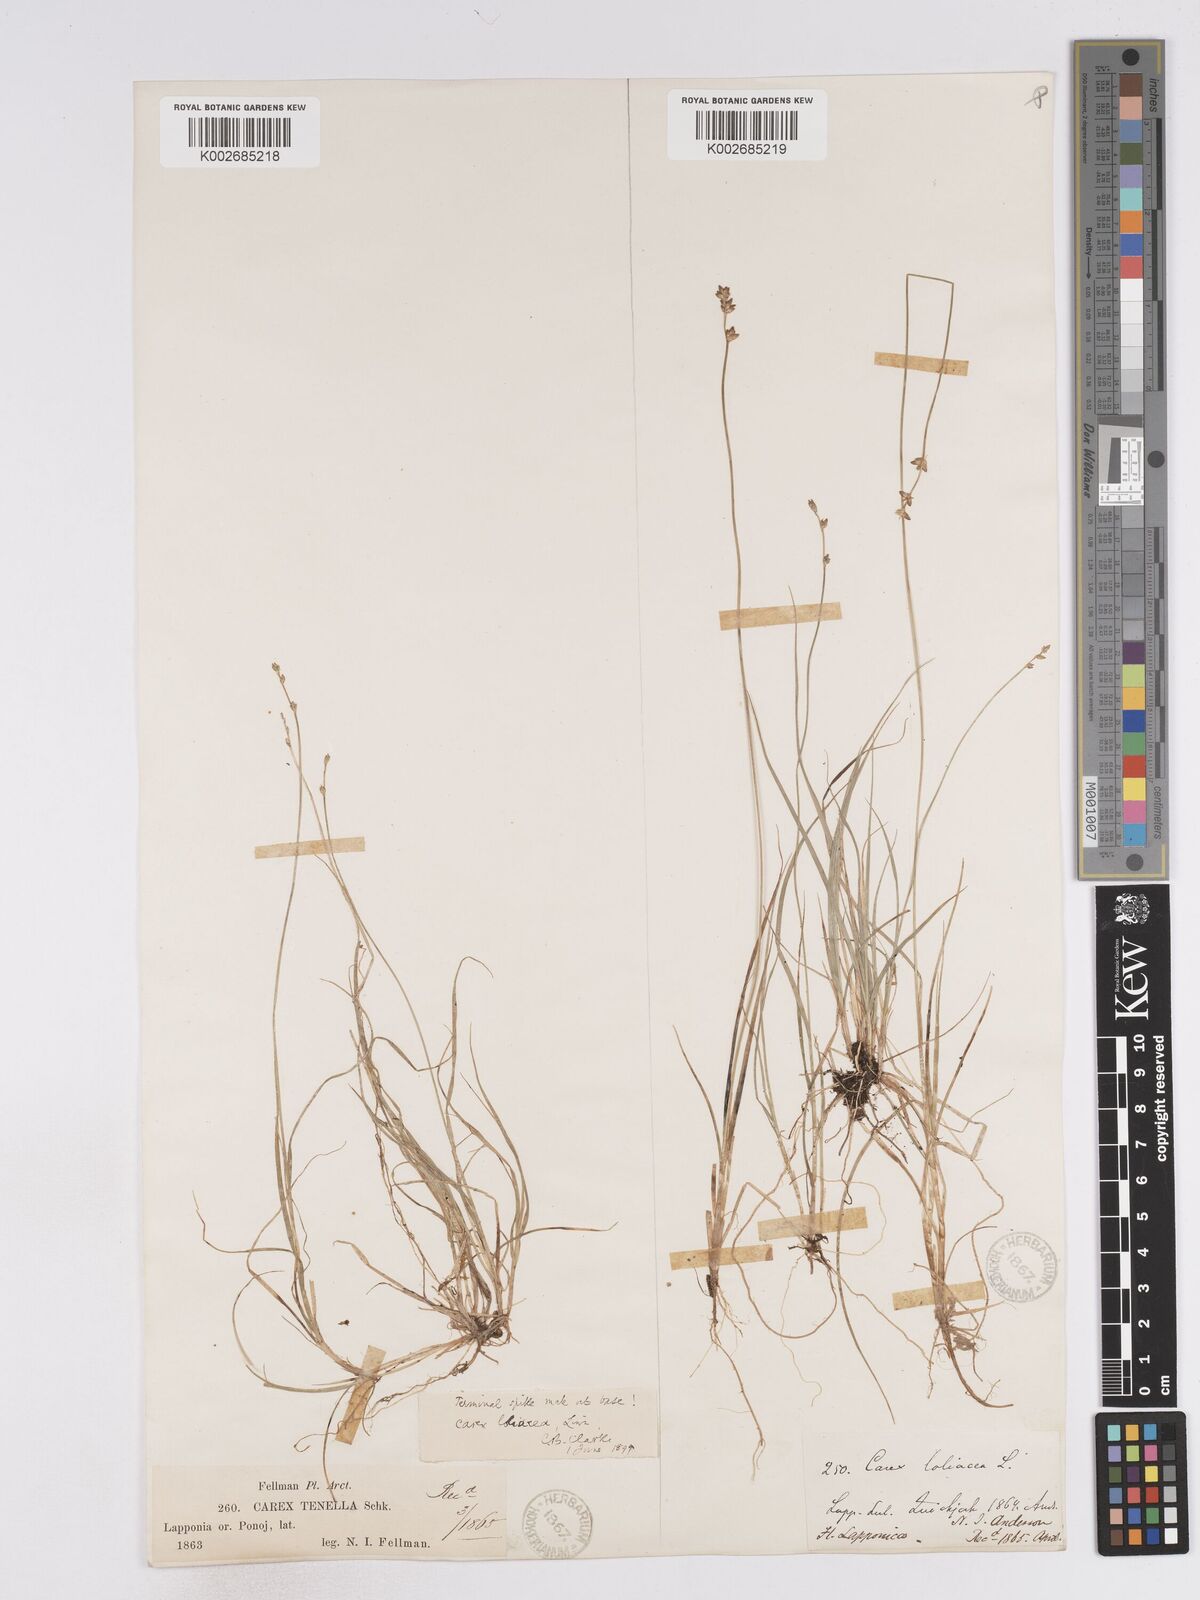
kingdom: Plantae
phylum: Tracheophyta
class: Liliopsida
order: Poales
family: Cyperaceae
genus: Carex
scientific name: Carex loliacea
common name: Ryegrass sedge
